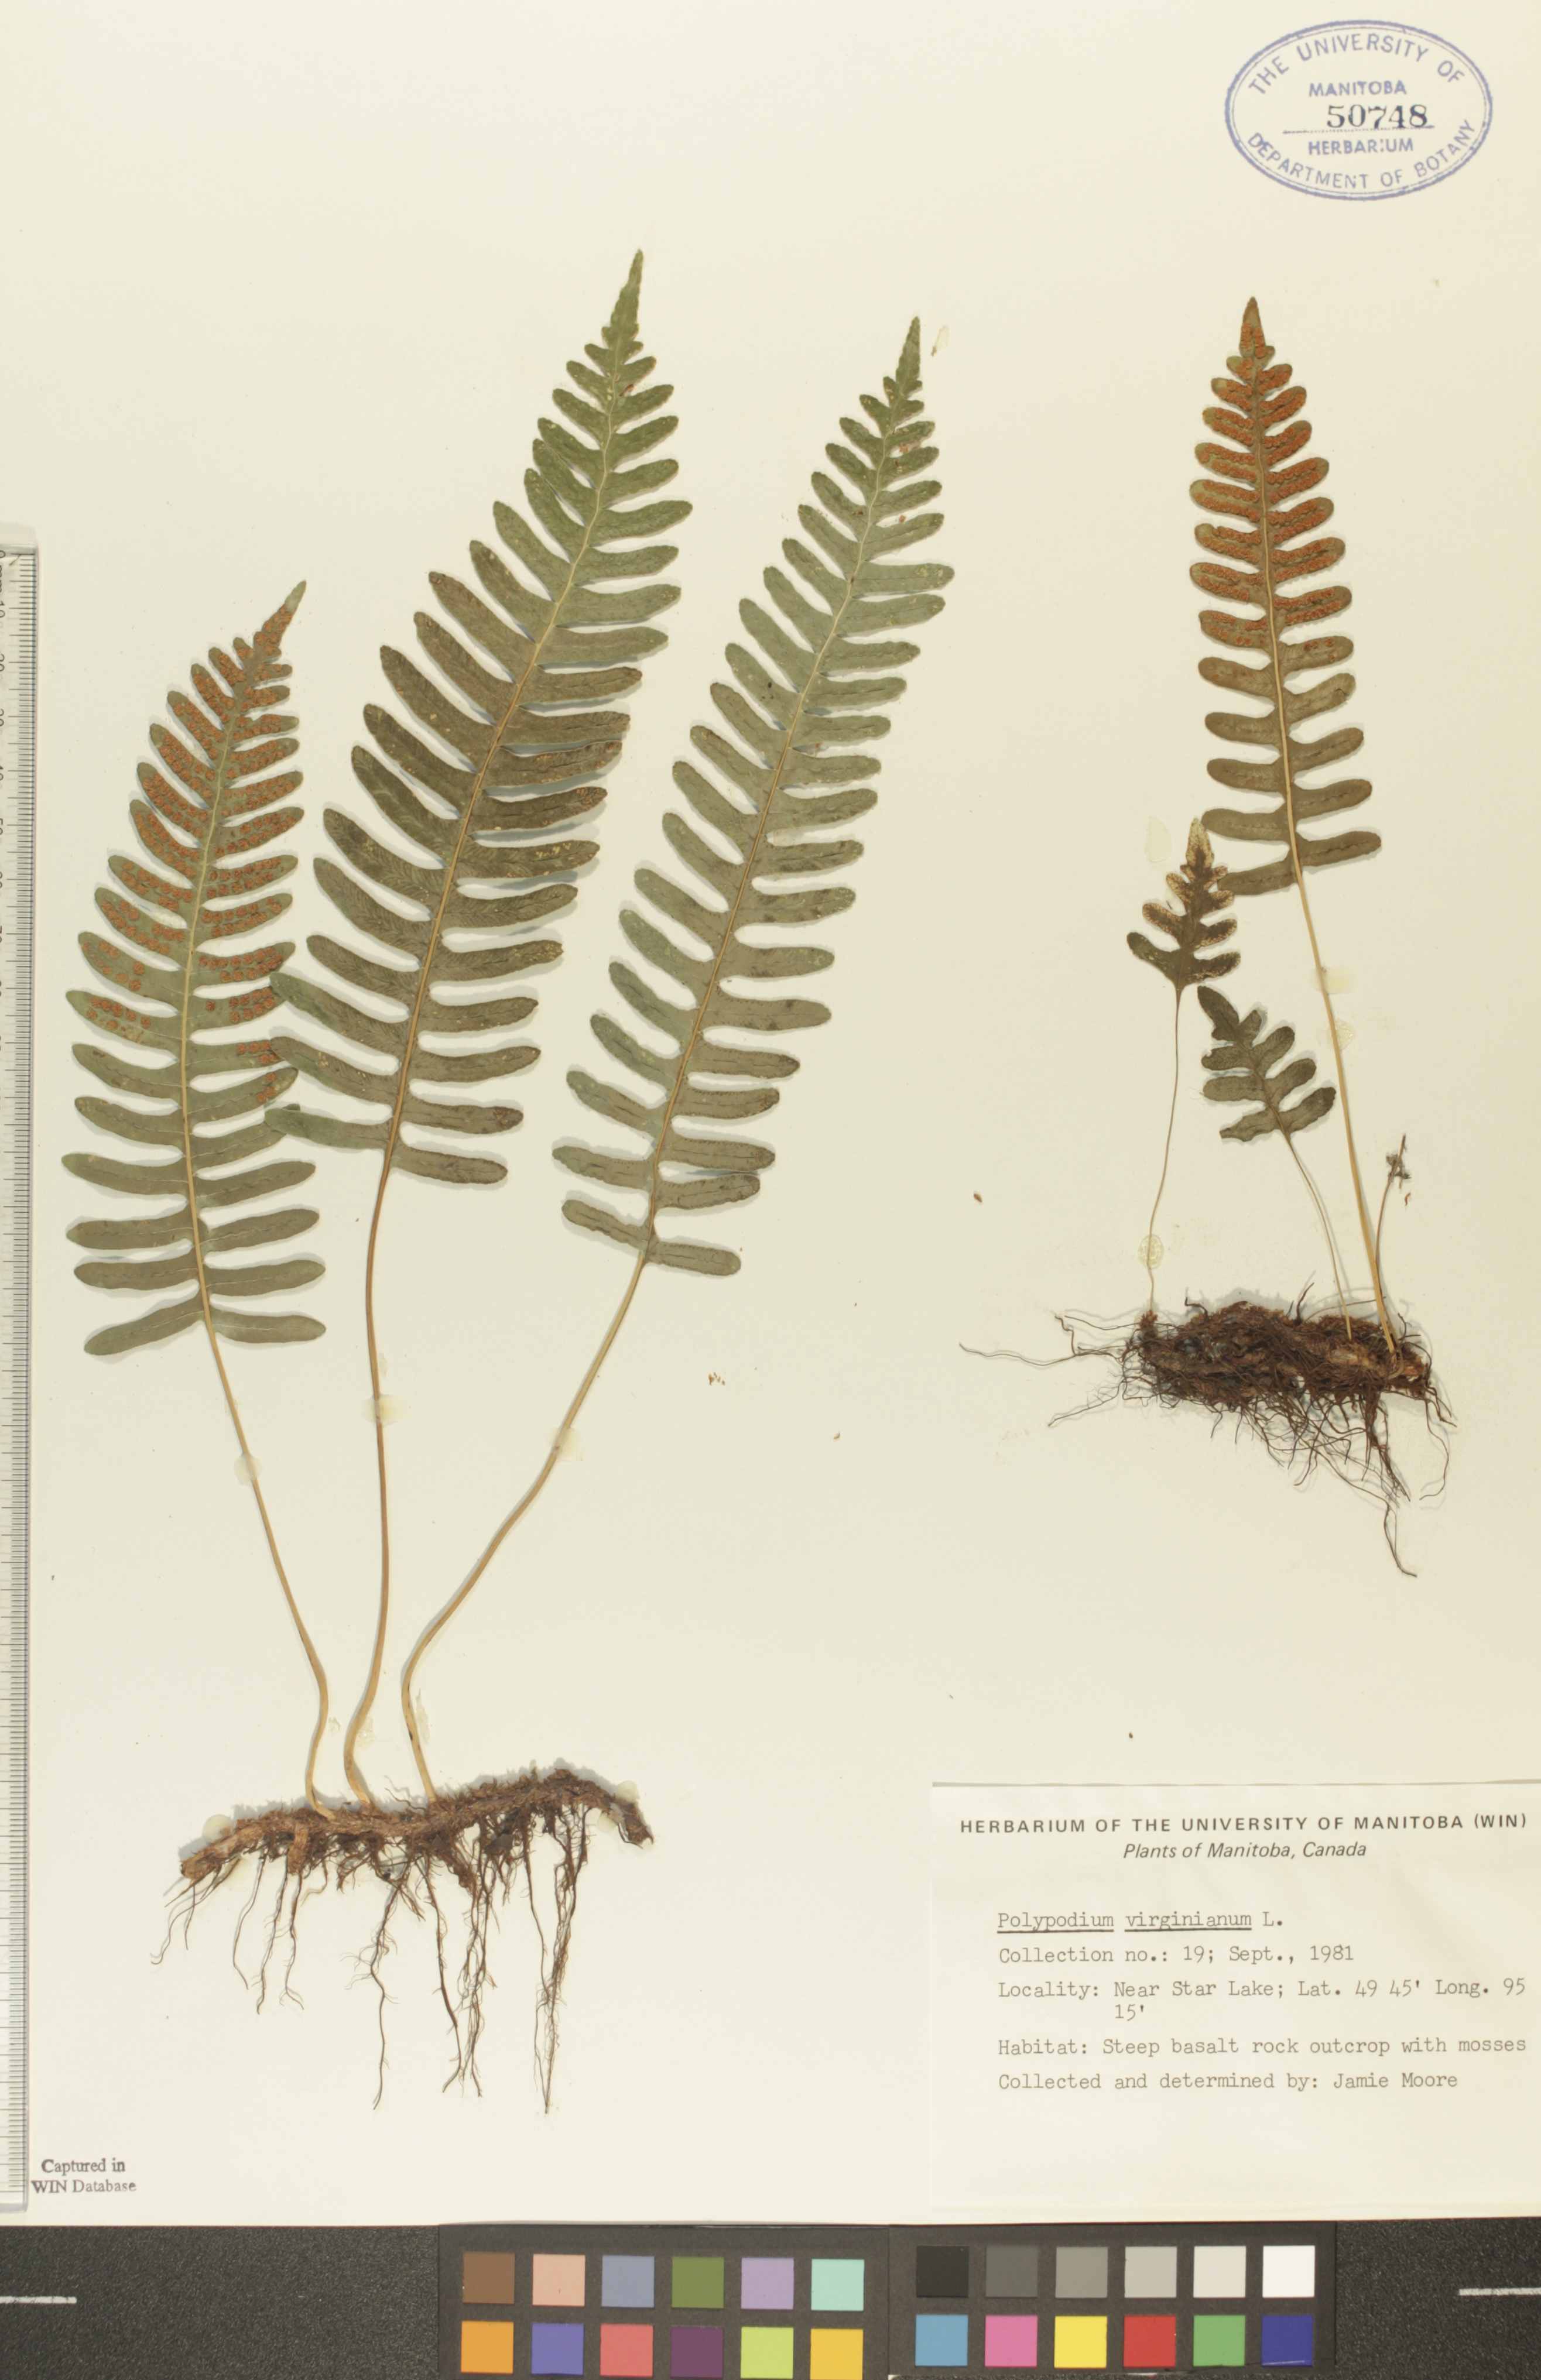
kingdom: Plantae
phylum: Tracheophyta
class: Polypodiopsida
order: Polypodiales
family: Polypodiaceae
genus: Polypodium
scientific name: Polypodium virginianum
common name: American wall fern
